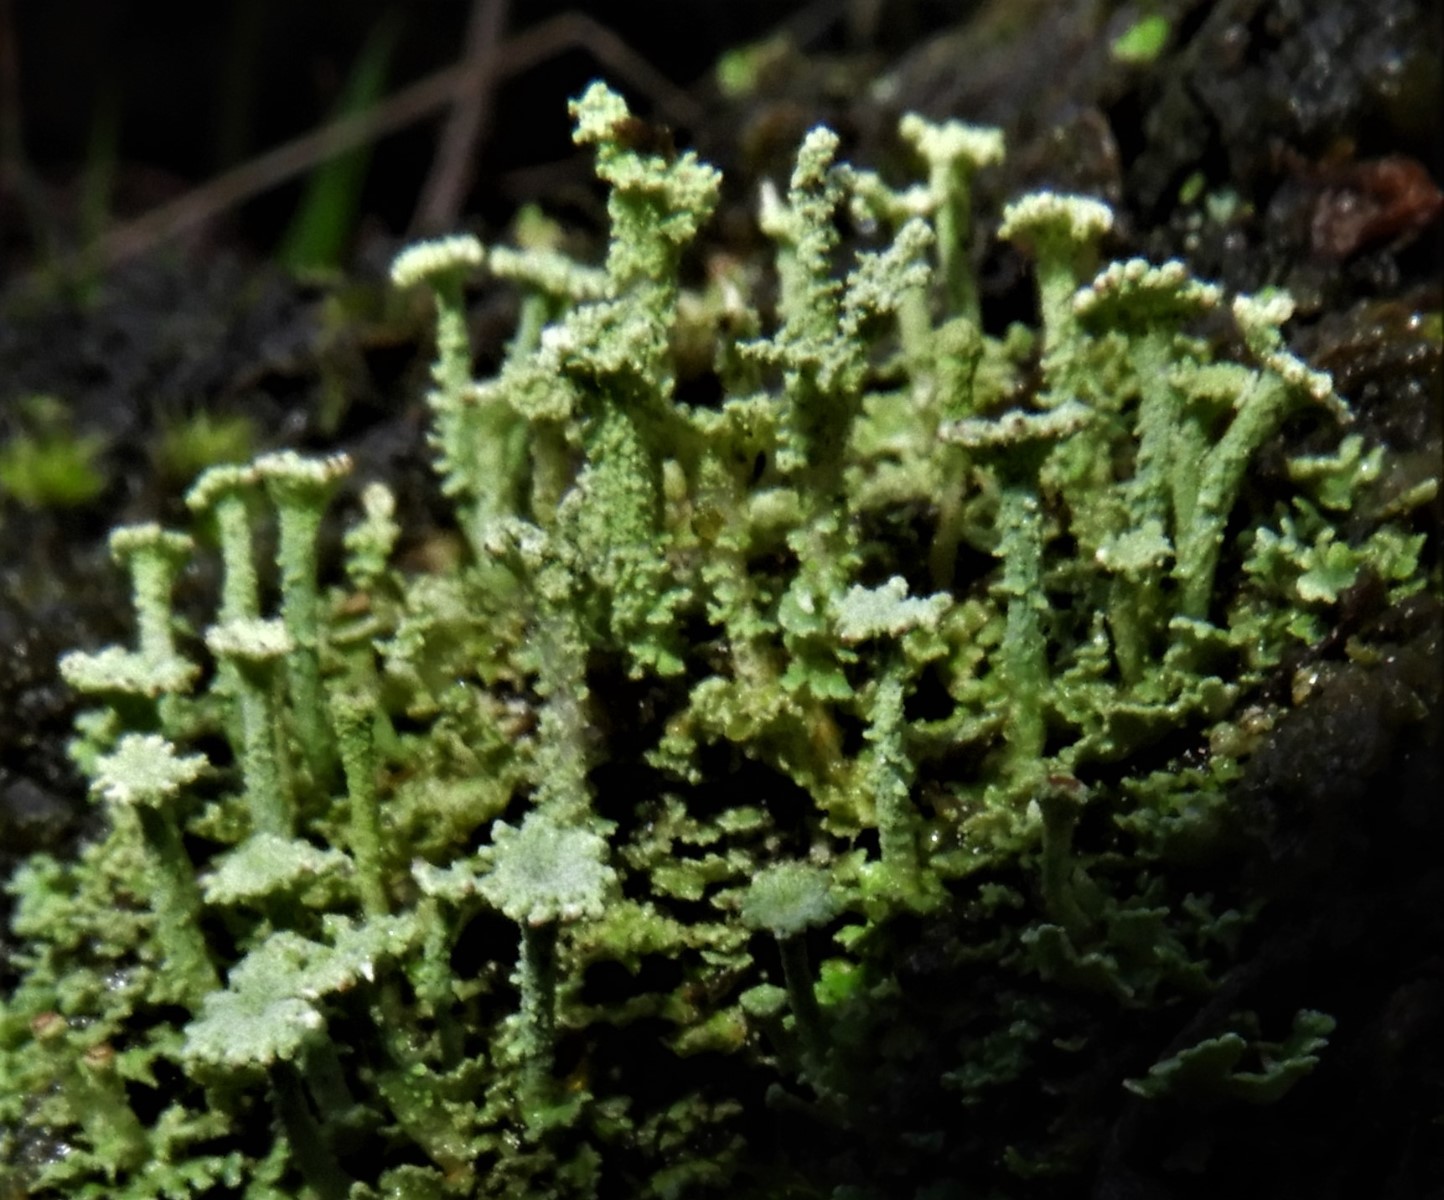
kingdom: Fungi
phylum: Ascomycota
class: Lecanoromycetes
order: Lecanorales
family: Cladoniaceae
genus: Cladonia
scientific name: Cladonia
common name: brungrøn bægerlav
